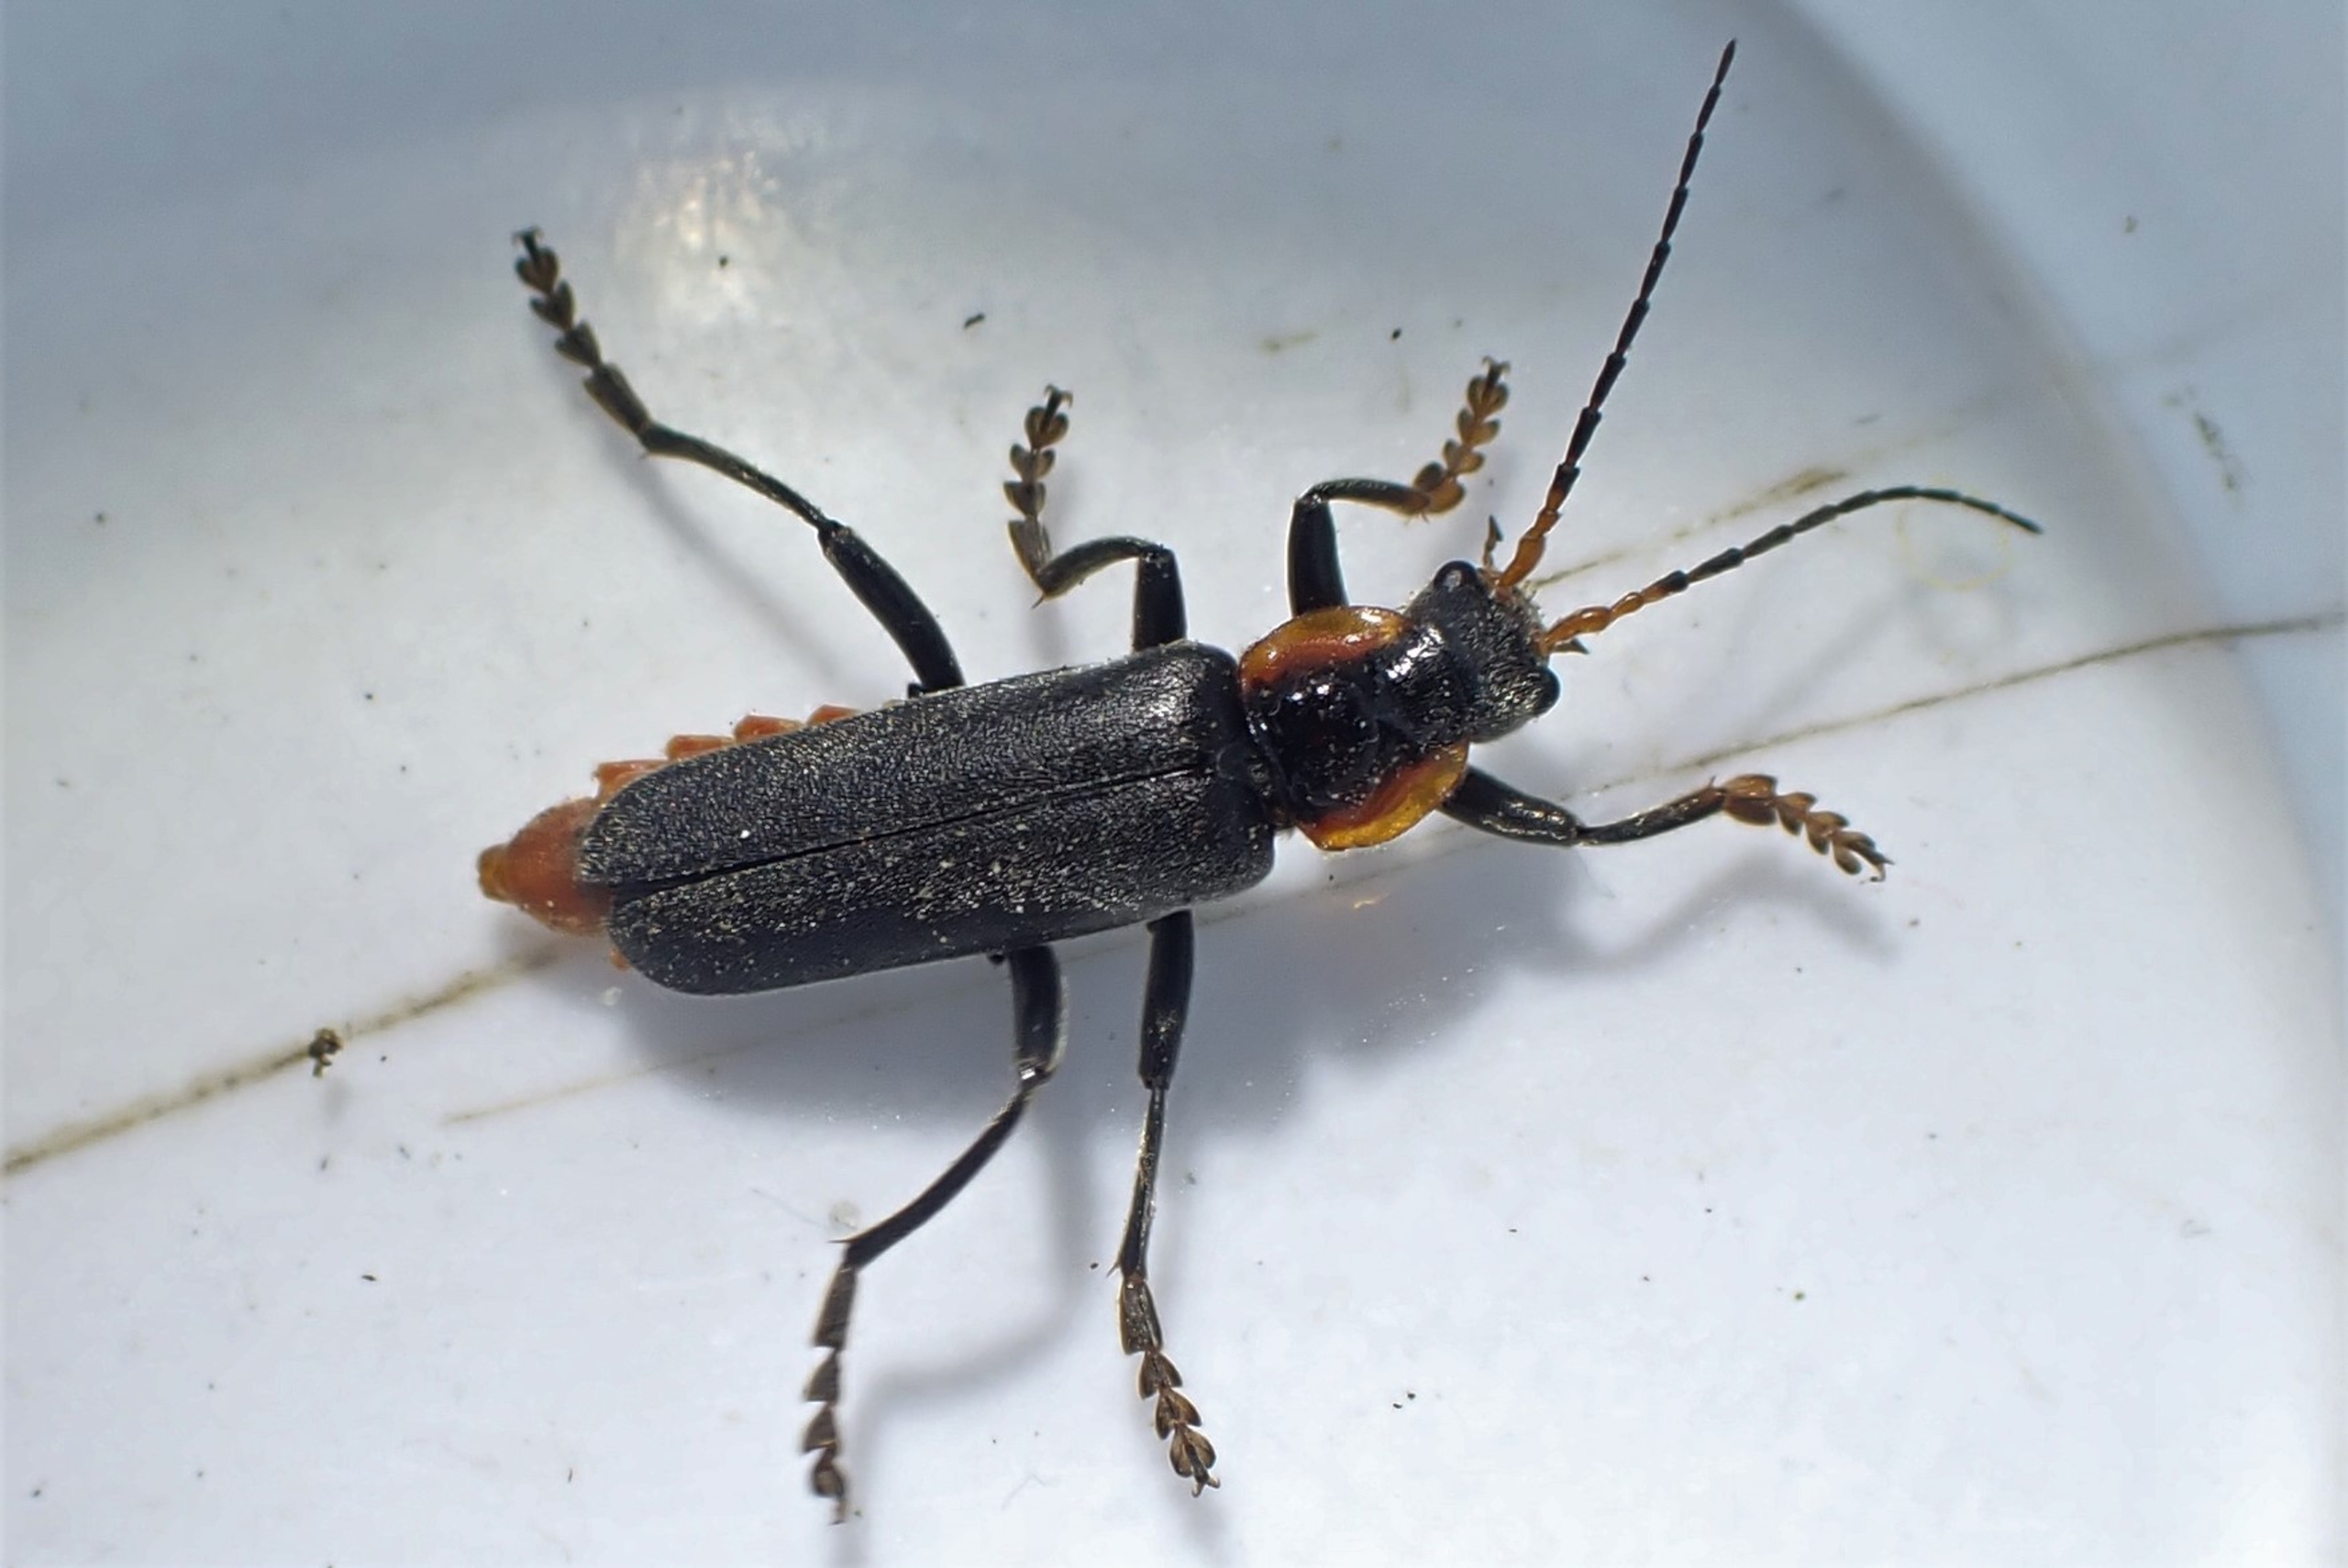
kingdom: Animalia
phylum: Arthropoda
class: Insecta
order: Coleoptera
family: Cantharidae
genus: Cantharis
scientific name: Cantharis fusca
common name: Stor blødvinge
